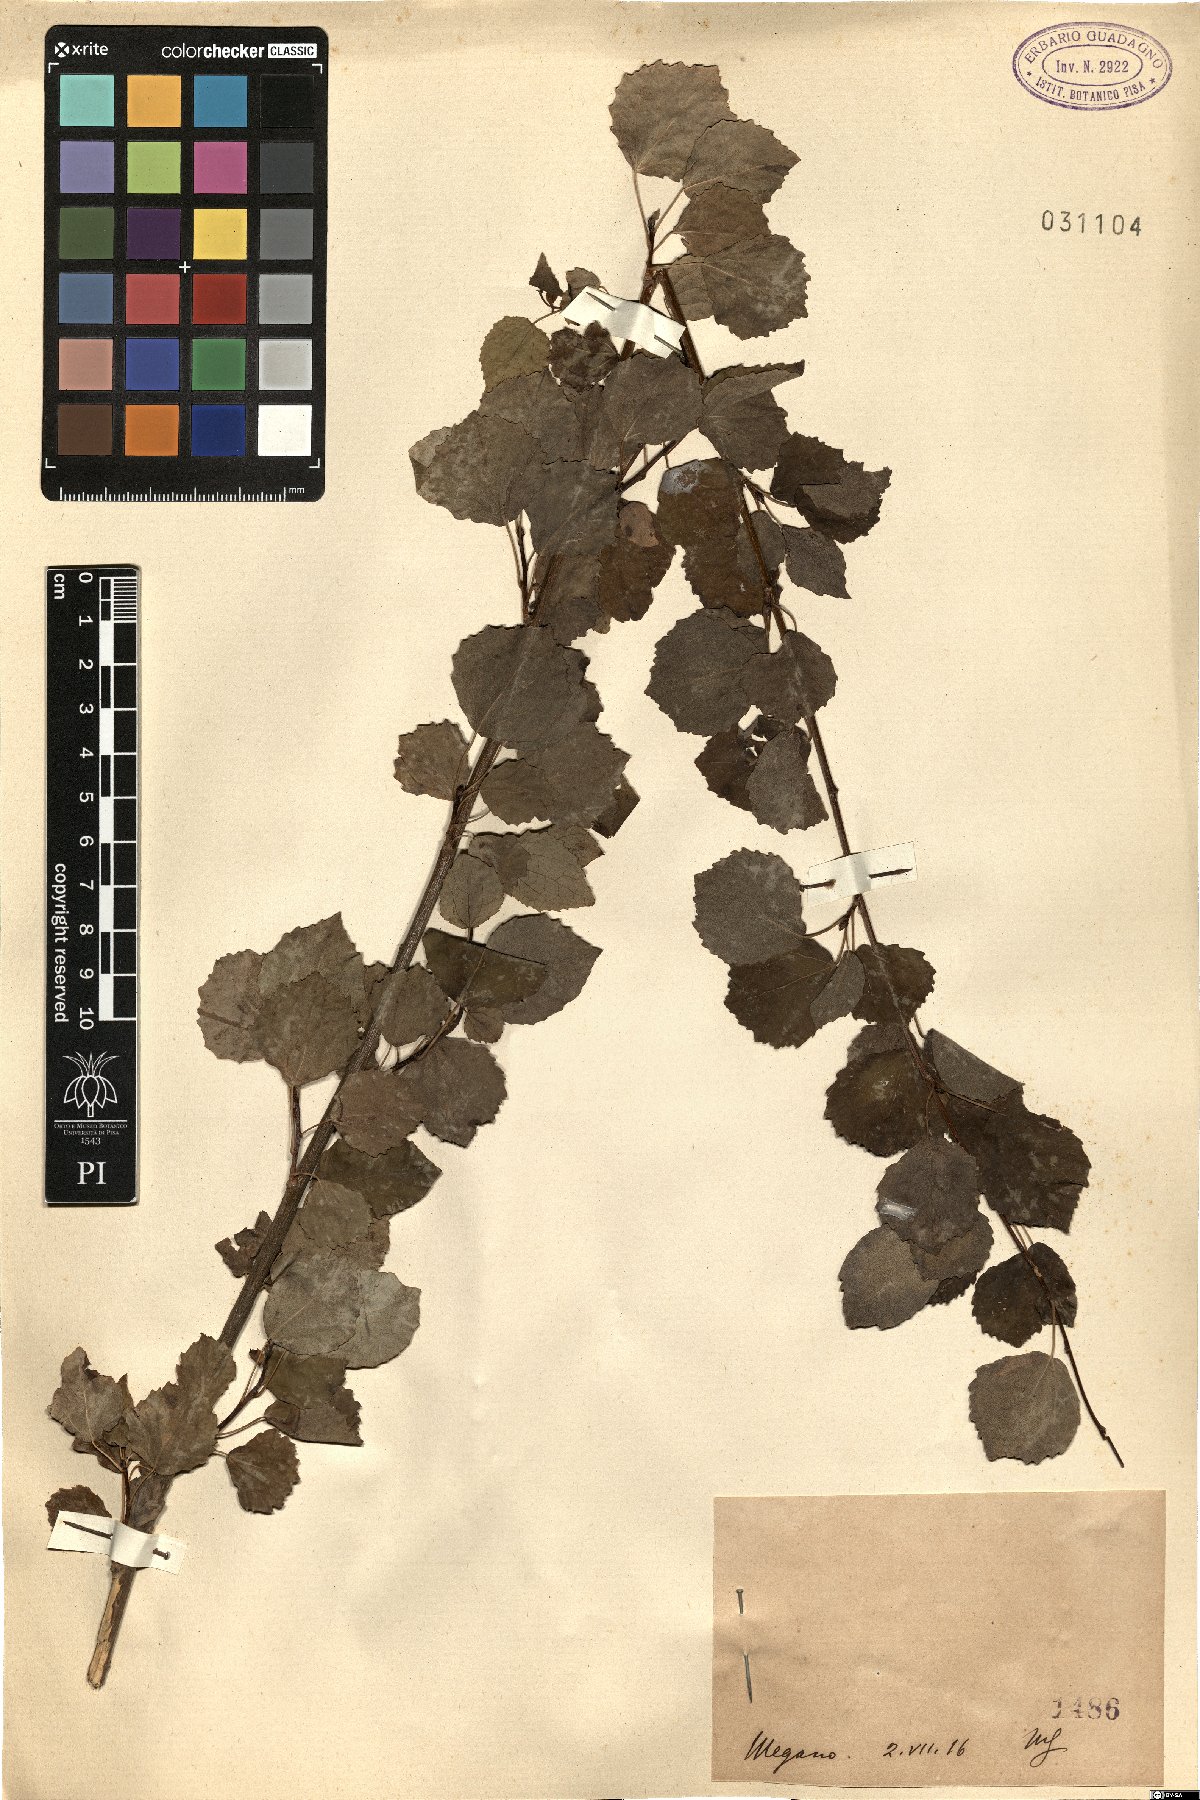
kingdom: Plantae
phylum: Tracheophyta
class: Magnoliopsida
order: Malpighiales
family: Salicaceae
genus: Populus
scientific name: Populus
